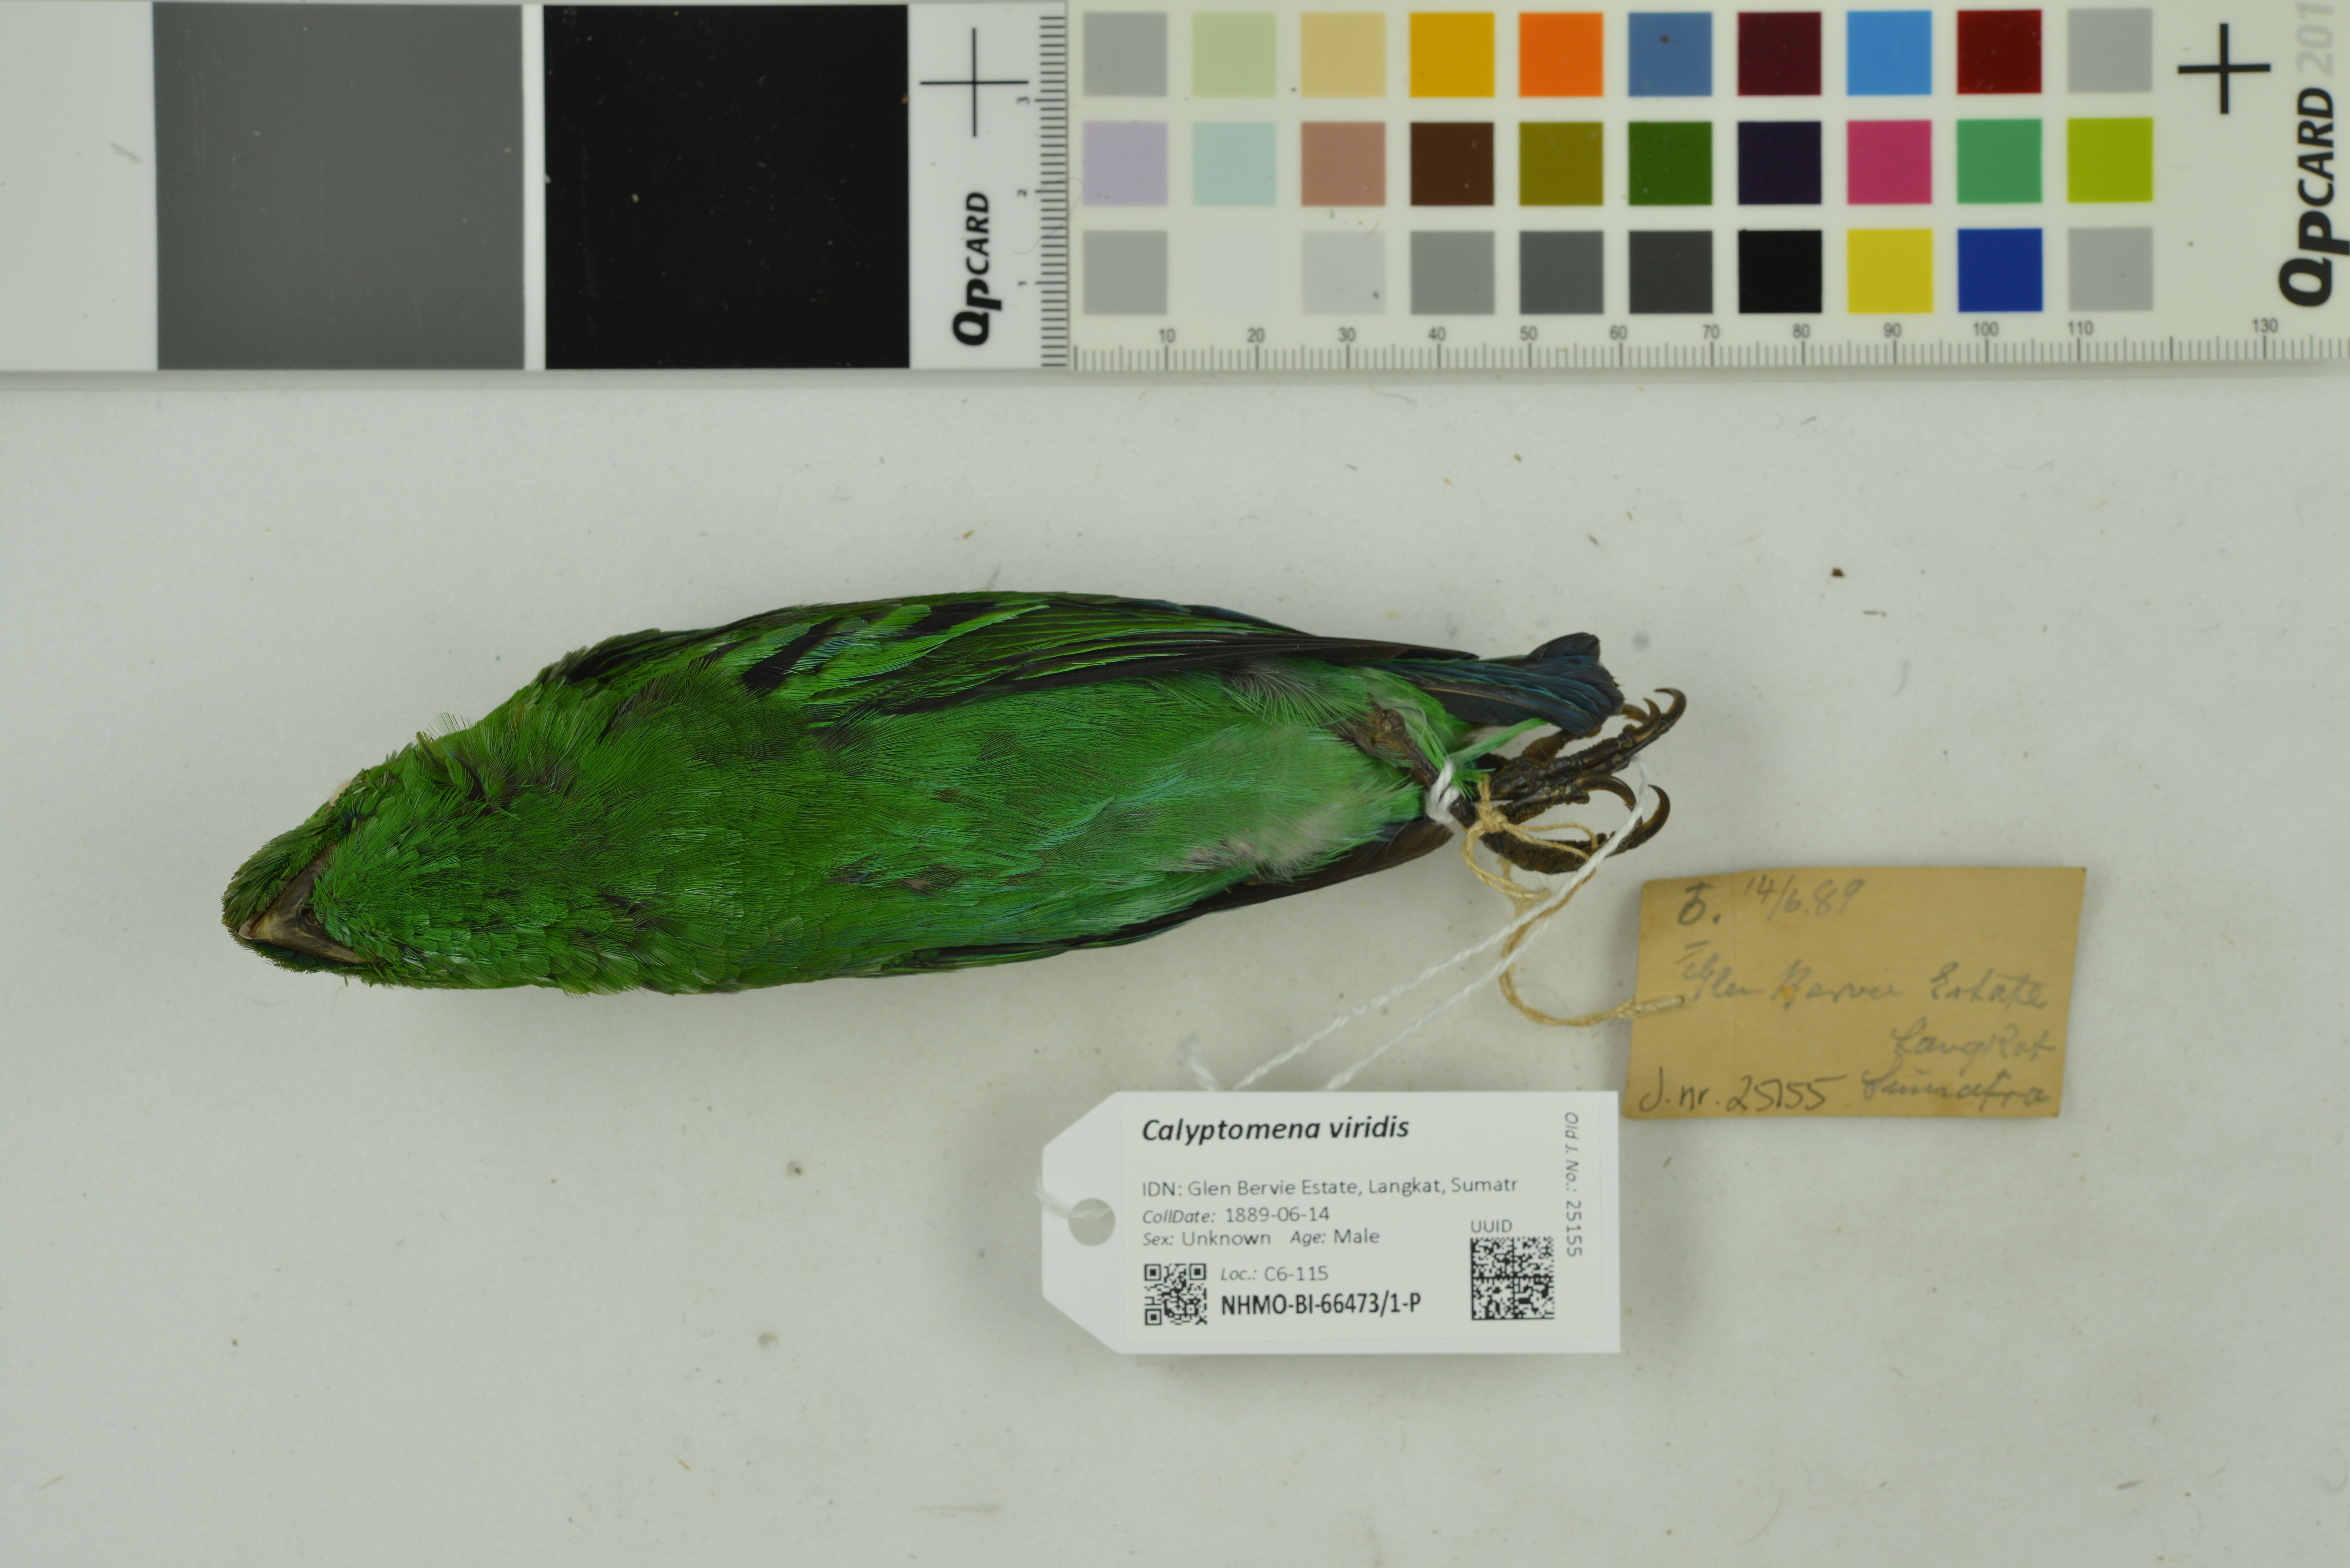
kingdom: Animalia
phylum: Chordata
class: Aves
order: Passeriformes
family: Eurylaimidae
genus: Calyptomena
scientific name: Calyptomena viridis
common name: Green broadbill
